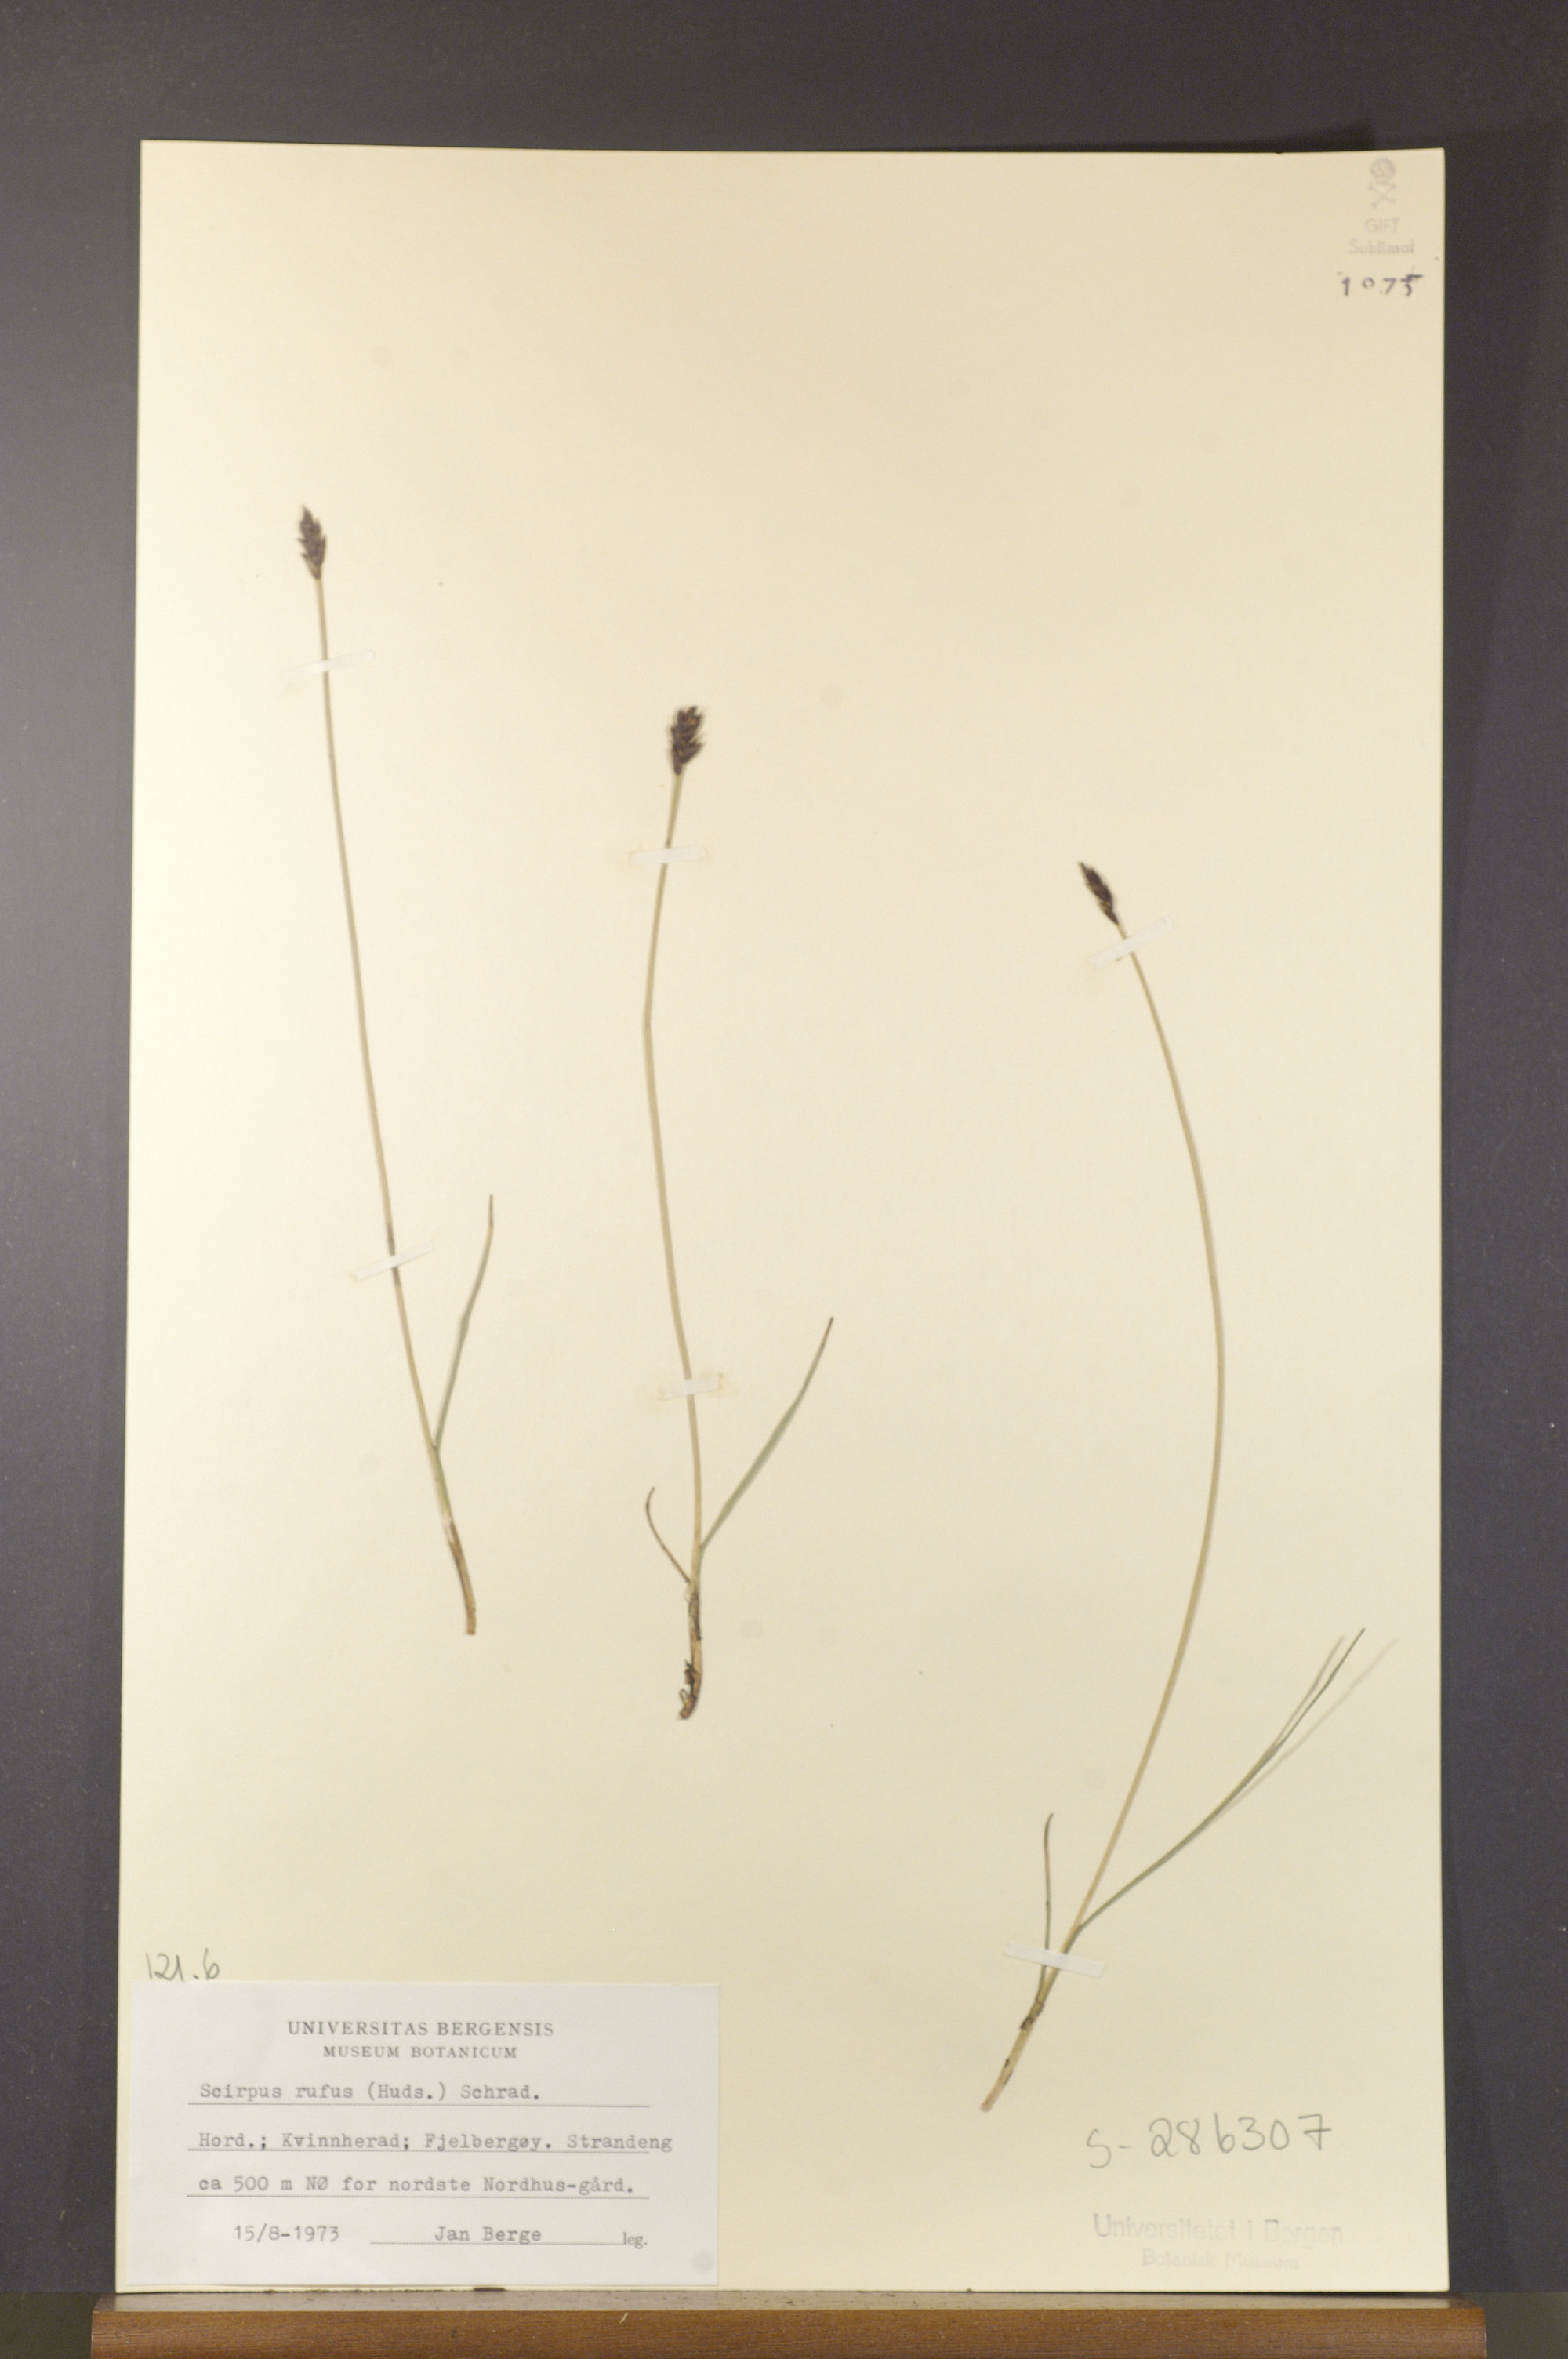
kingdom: Plantae
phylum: Tracheophyta
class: Liliopsida
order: Poales
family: Cyperaceae
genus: Blysmus
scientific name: Blysmus rufus
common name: Saltmarsh flat-sedge
